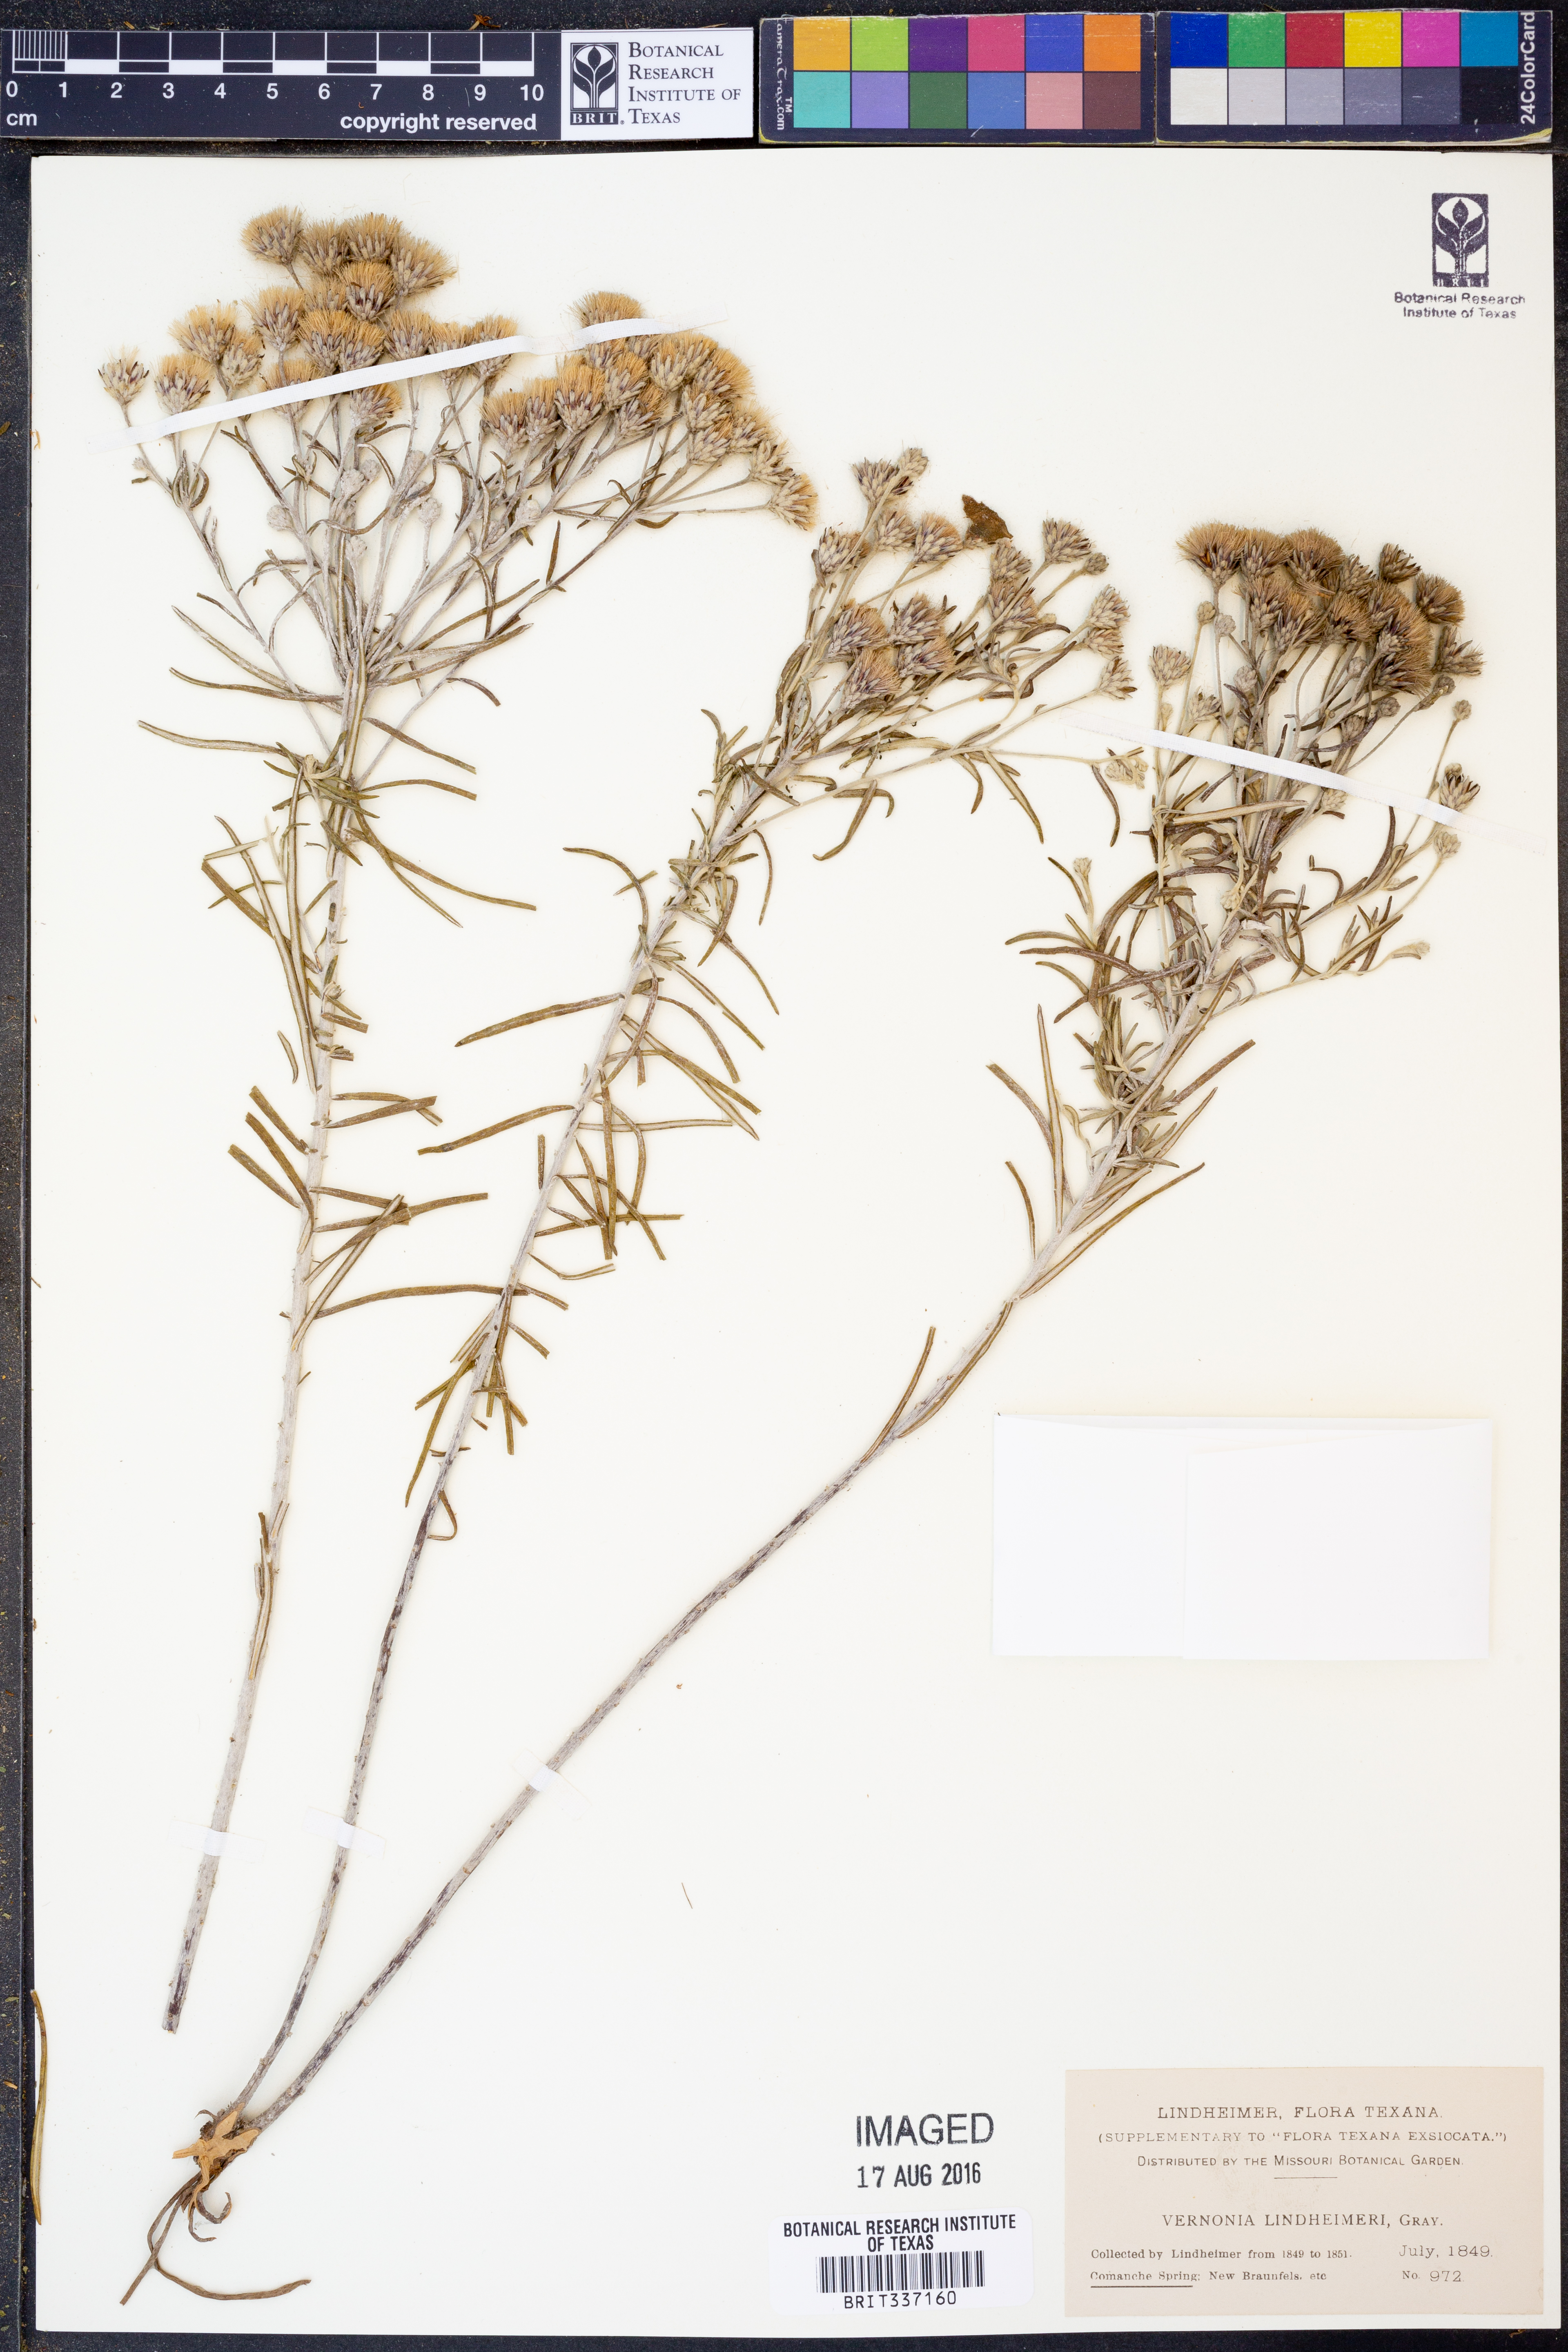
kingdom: Plantae
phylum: Tracheophyta
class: Magnoliopsida
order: Asterales
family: Asteraceae
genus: Vernonia
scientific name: Vernonia lindheimeri
